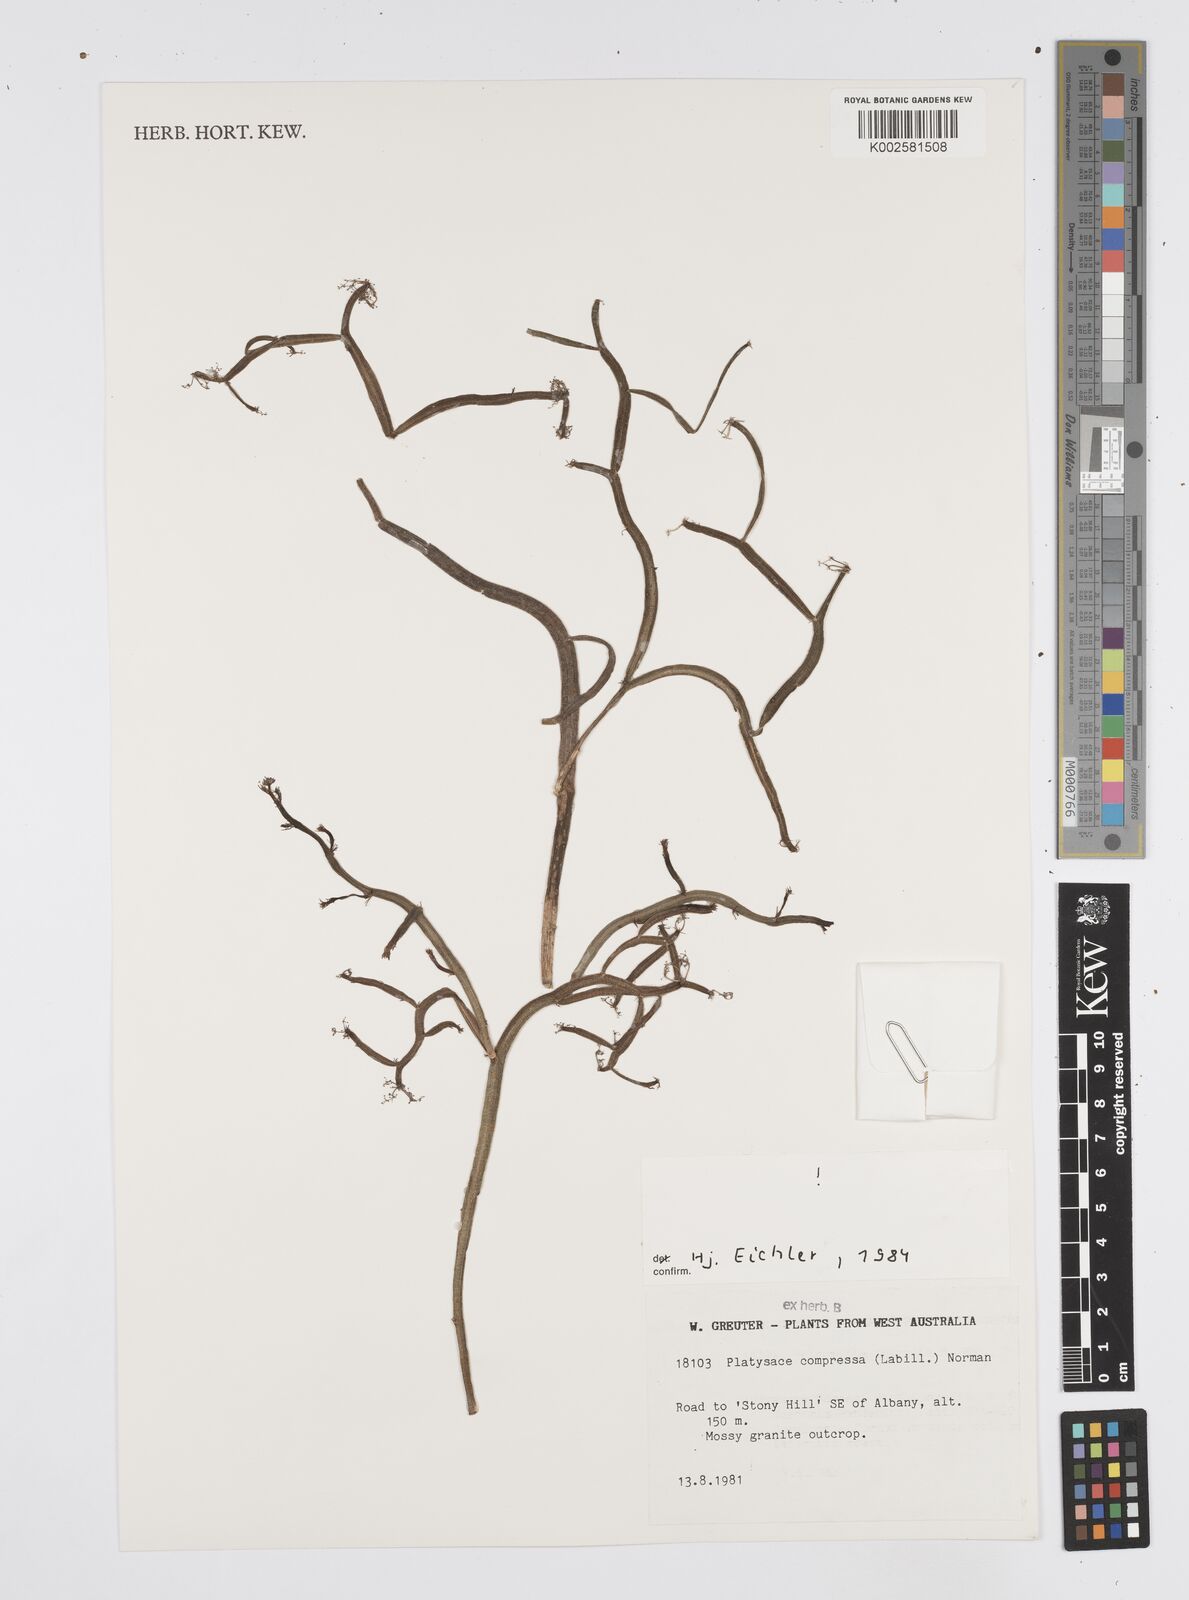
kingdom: Plantae
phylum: Tracheophyta
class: Magnoliopsida
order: Apiales
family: Apiaceae
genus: Centella
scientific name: Centella
